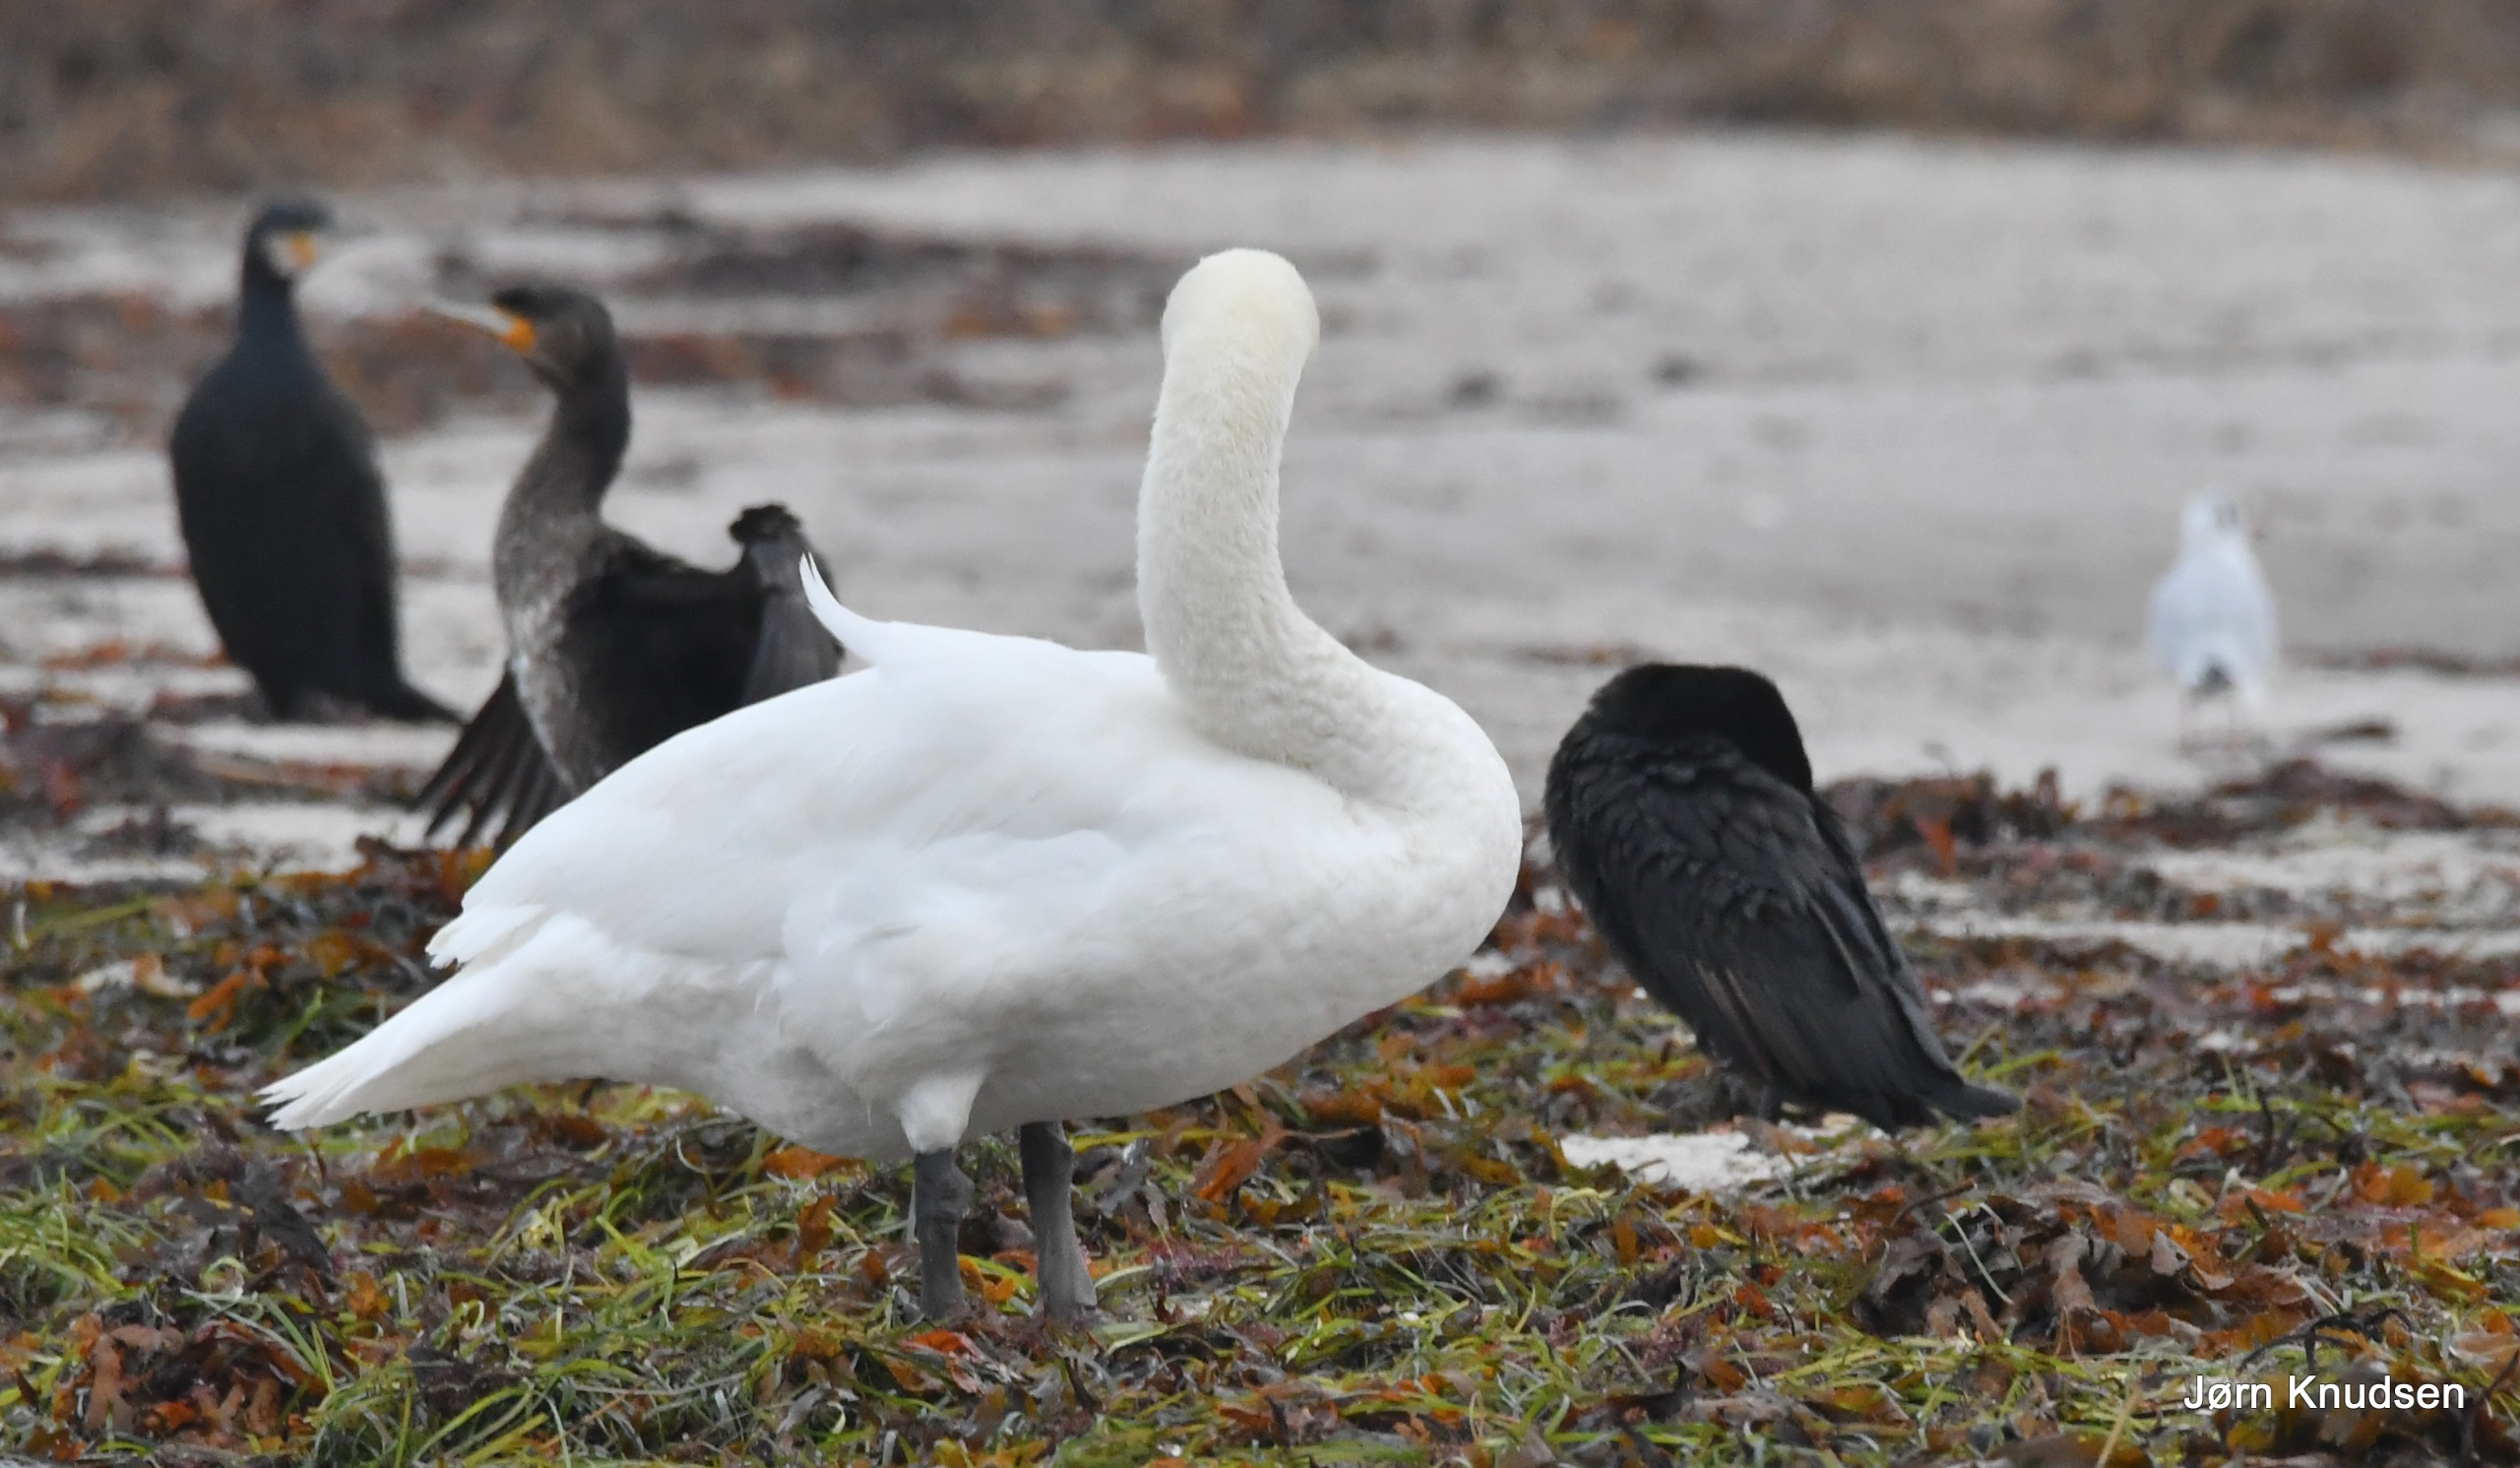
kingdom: Animalia
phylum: Chordata
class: Aves
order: Suliformes
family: Phalacrocoracidae
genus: Phalacrocorax
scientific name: Phalacrocorax carbo
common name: Skarv
